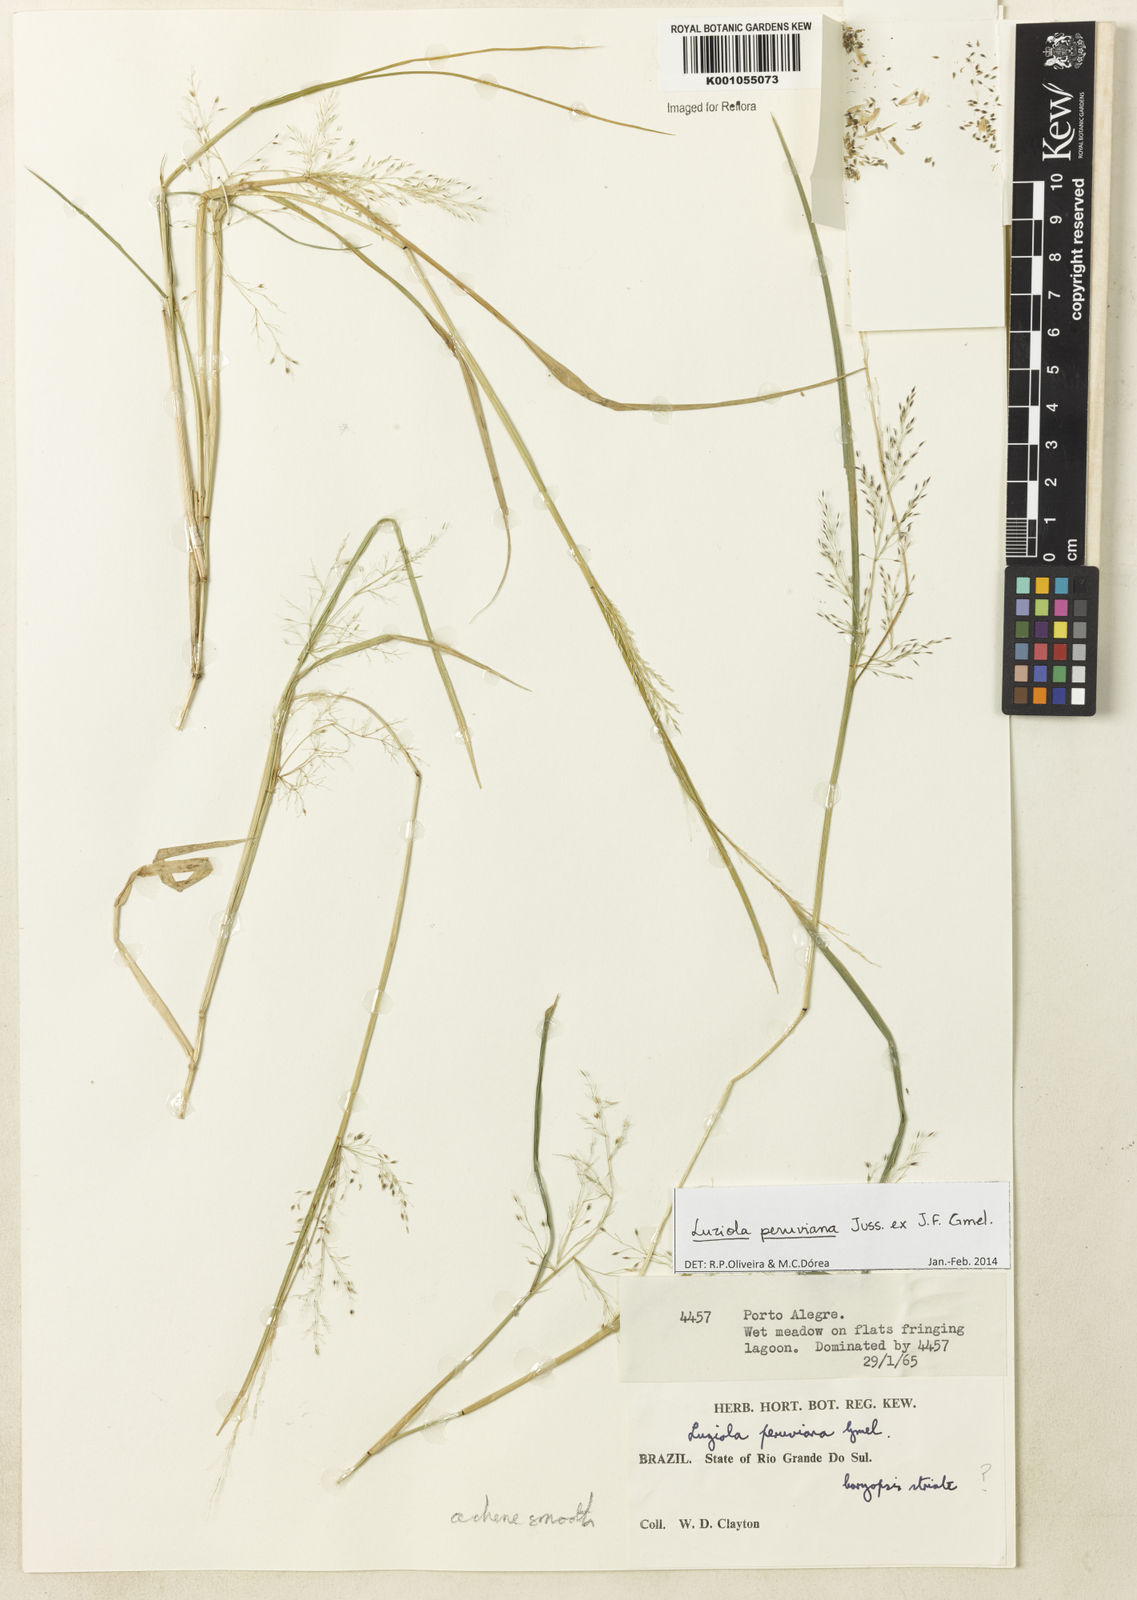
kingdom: Plantae
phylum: Tracheophyta
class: Liliopsida
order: Poales
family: Poaceae
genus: Luziola
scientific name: Luziola peruviana
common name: Peruvian watergrass
